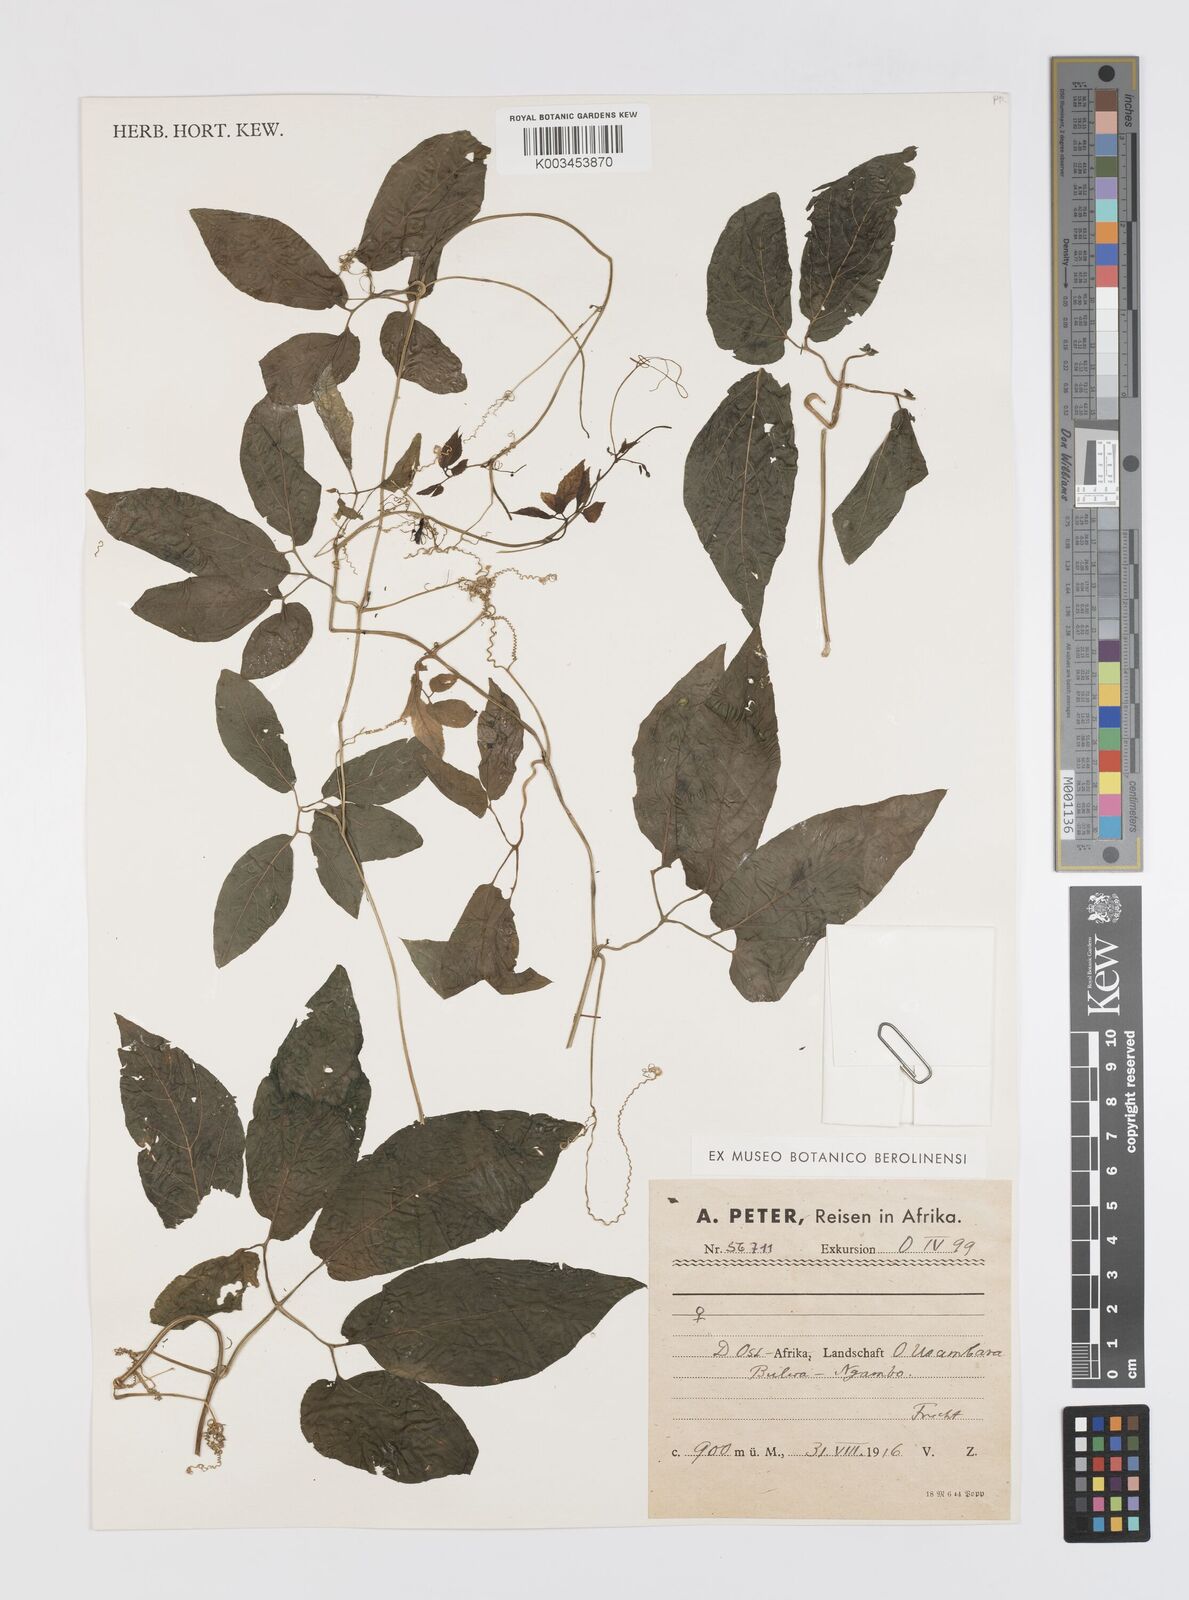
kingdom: Plantae
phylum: Tracheophyta
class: Magnoliopsida
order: Cucurbitales
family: Cucurbitaceae
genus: Momordica
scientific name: Momordica anigosantha
